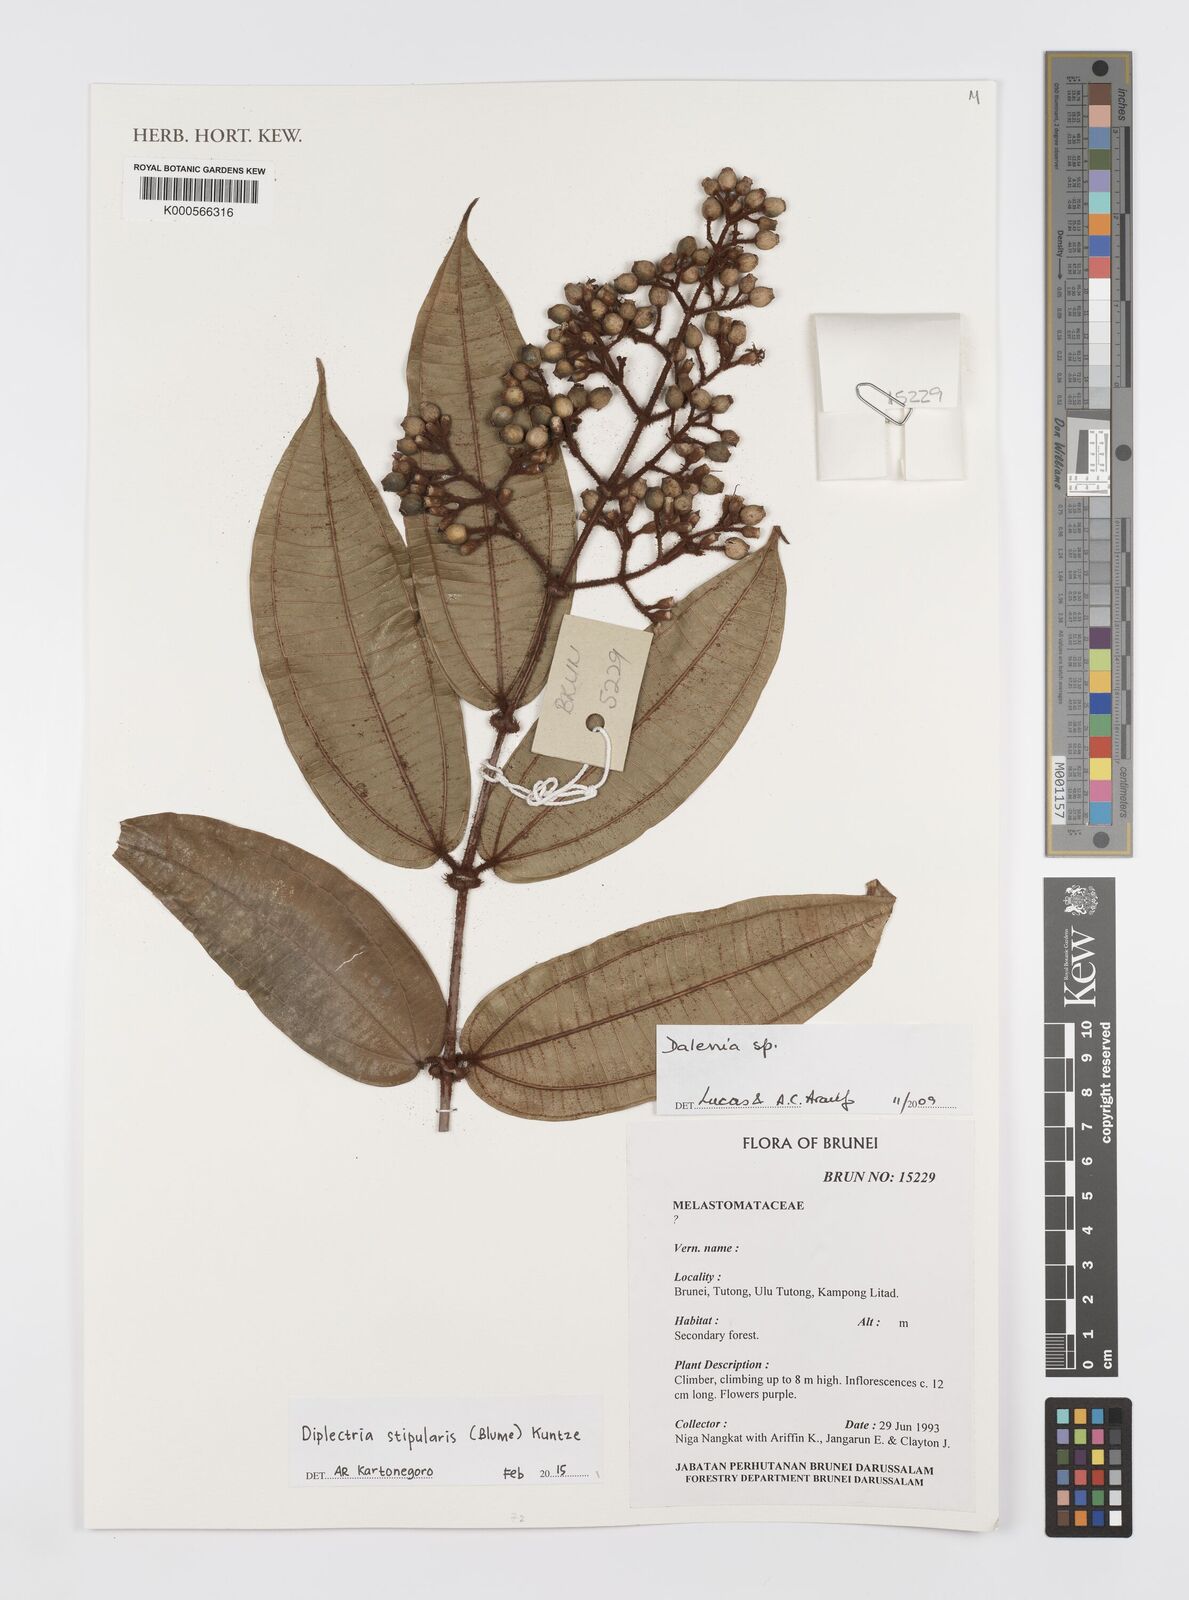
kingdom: Plantae
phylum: Tracheophyta
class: Magnoliopsida
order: Myrtales
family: Melastomataceae
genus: Diplectria
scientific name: Diplectria stipularis
